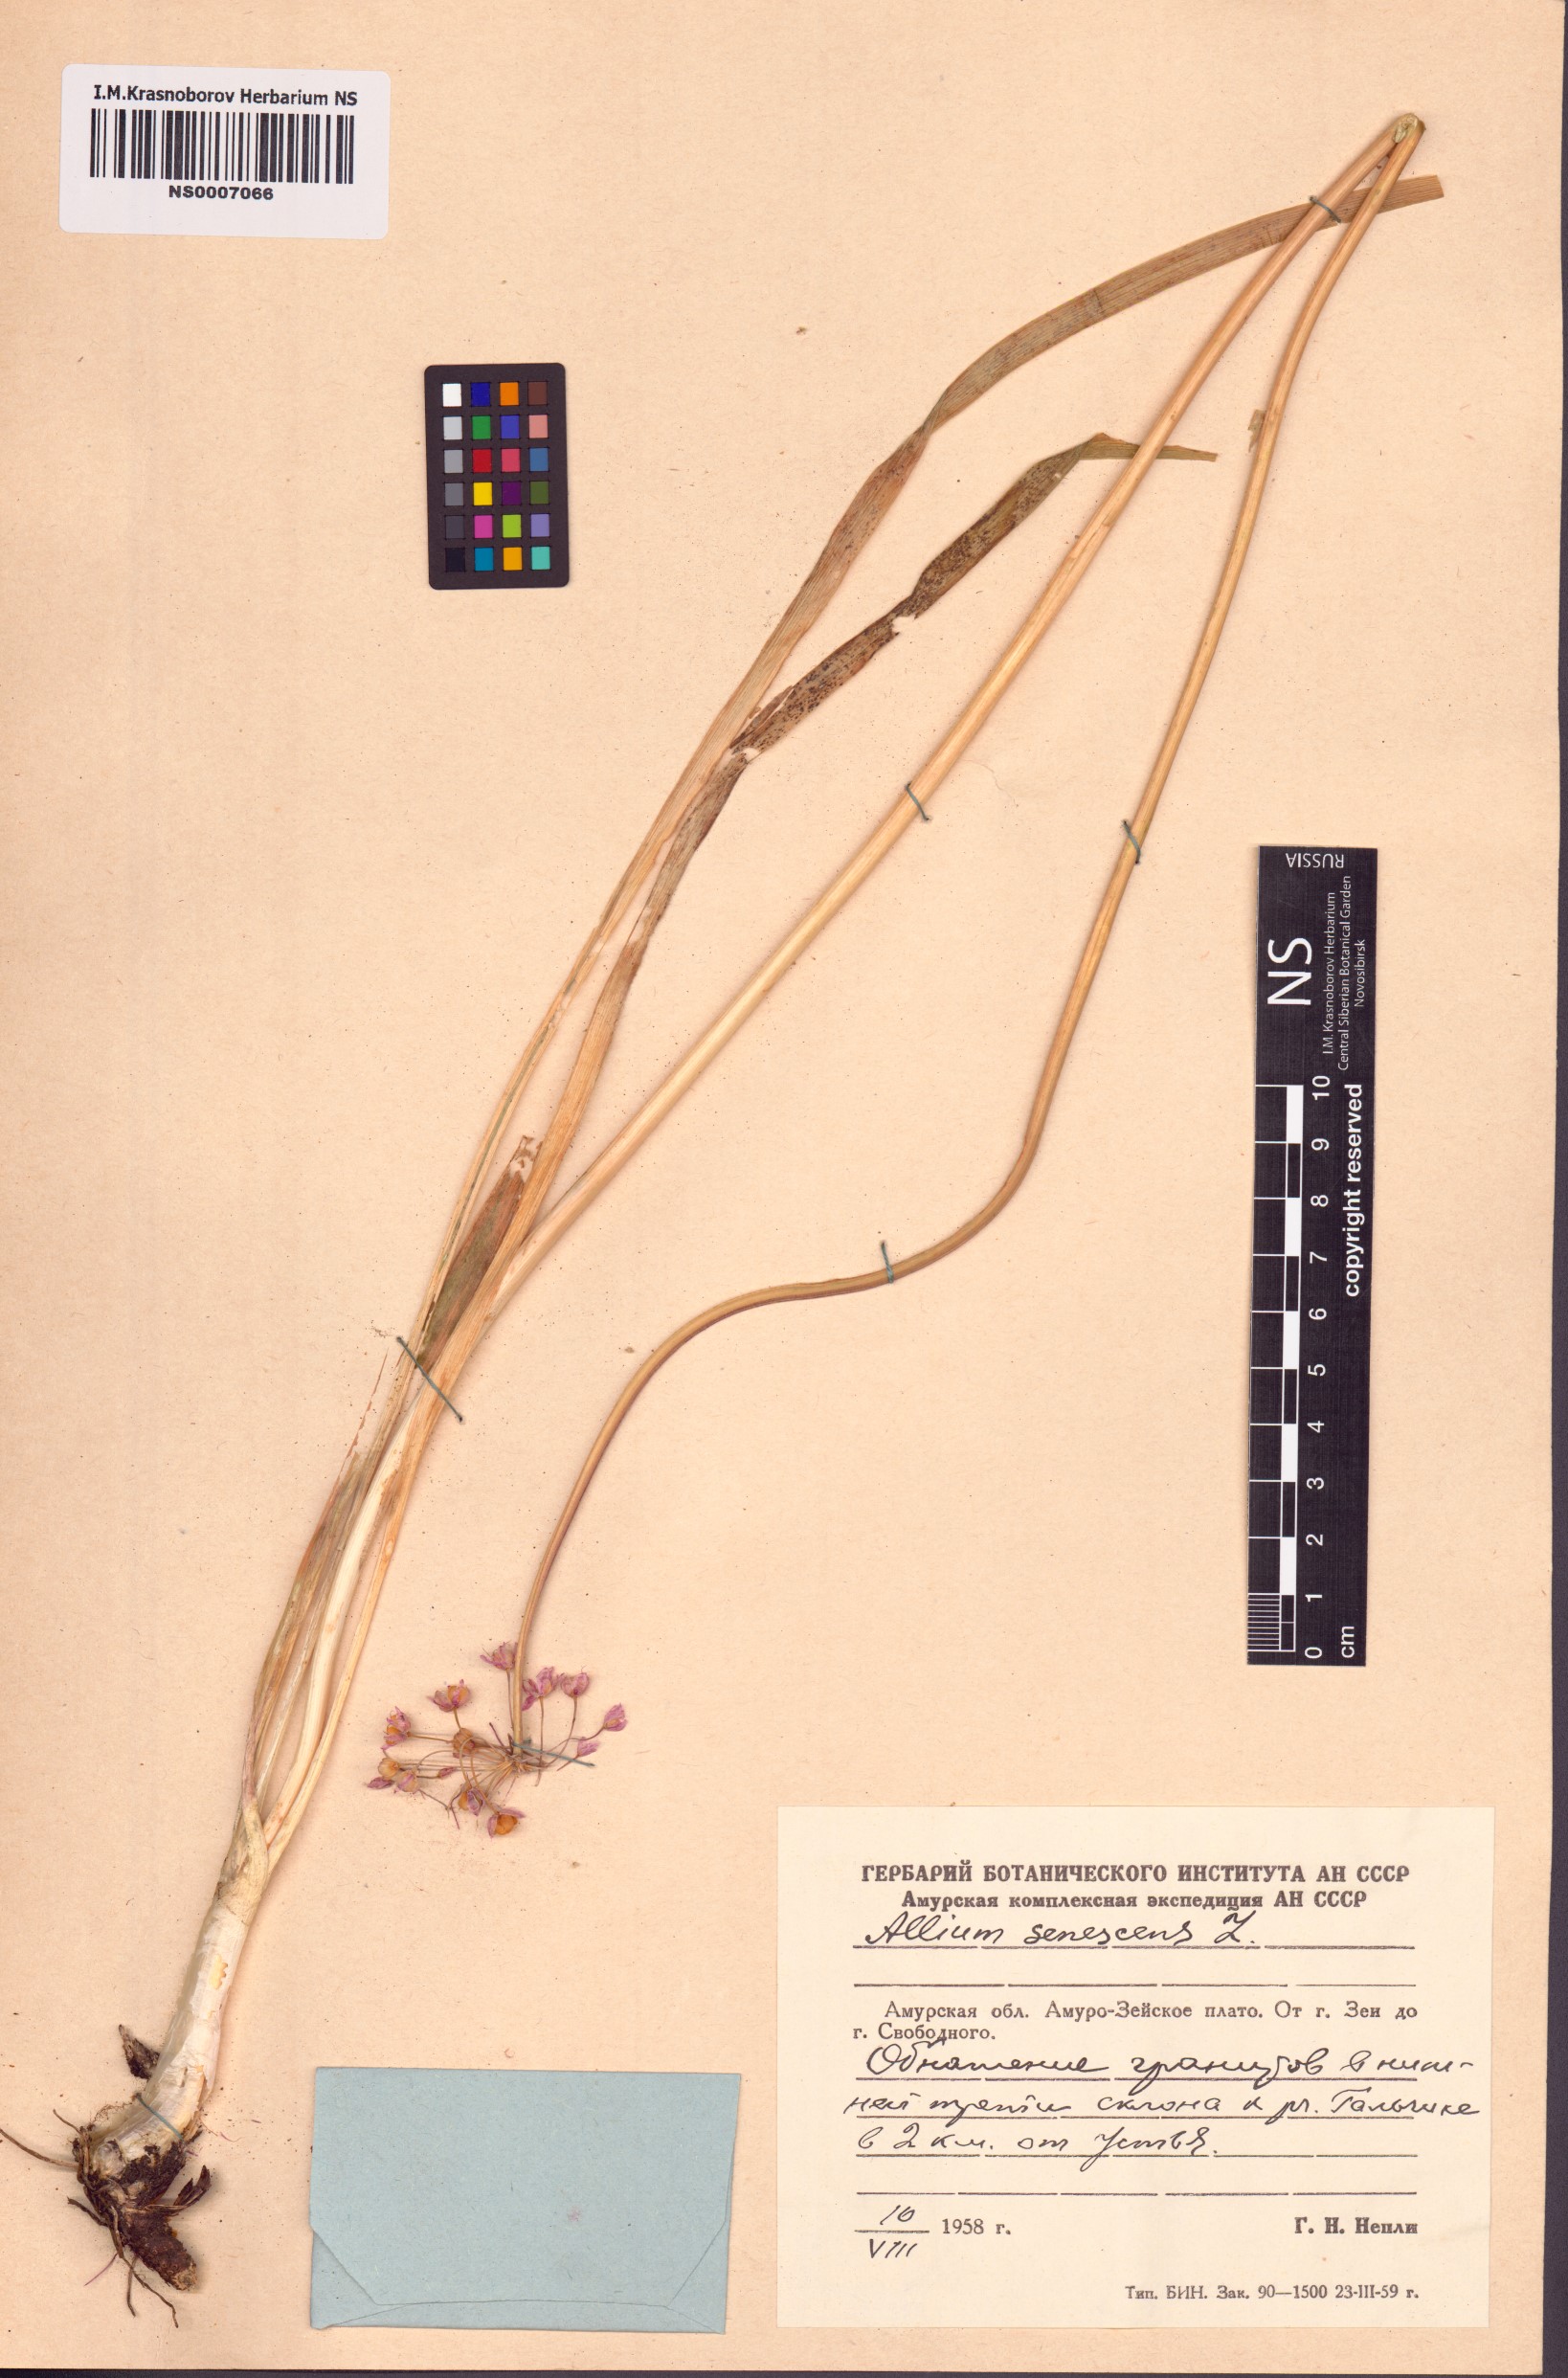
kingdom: Plantae
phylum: Tracheophyta
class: Liliopsida
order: Asparagales
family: Amaryllidaceae
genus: Allium
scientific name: Allium senescens
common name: German garlic
